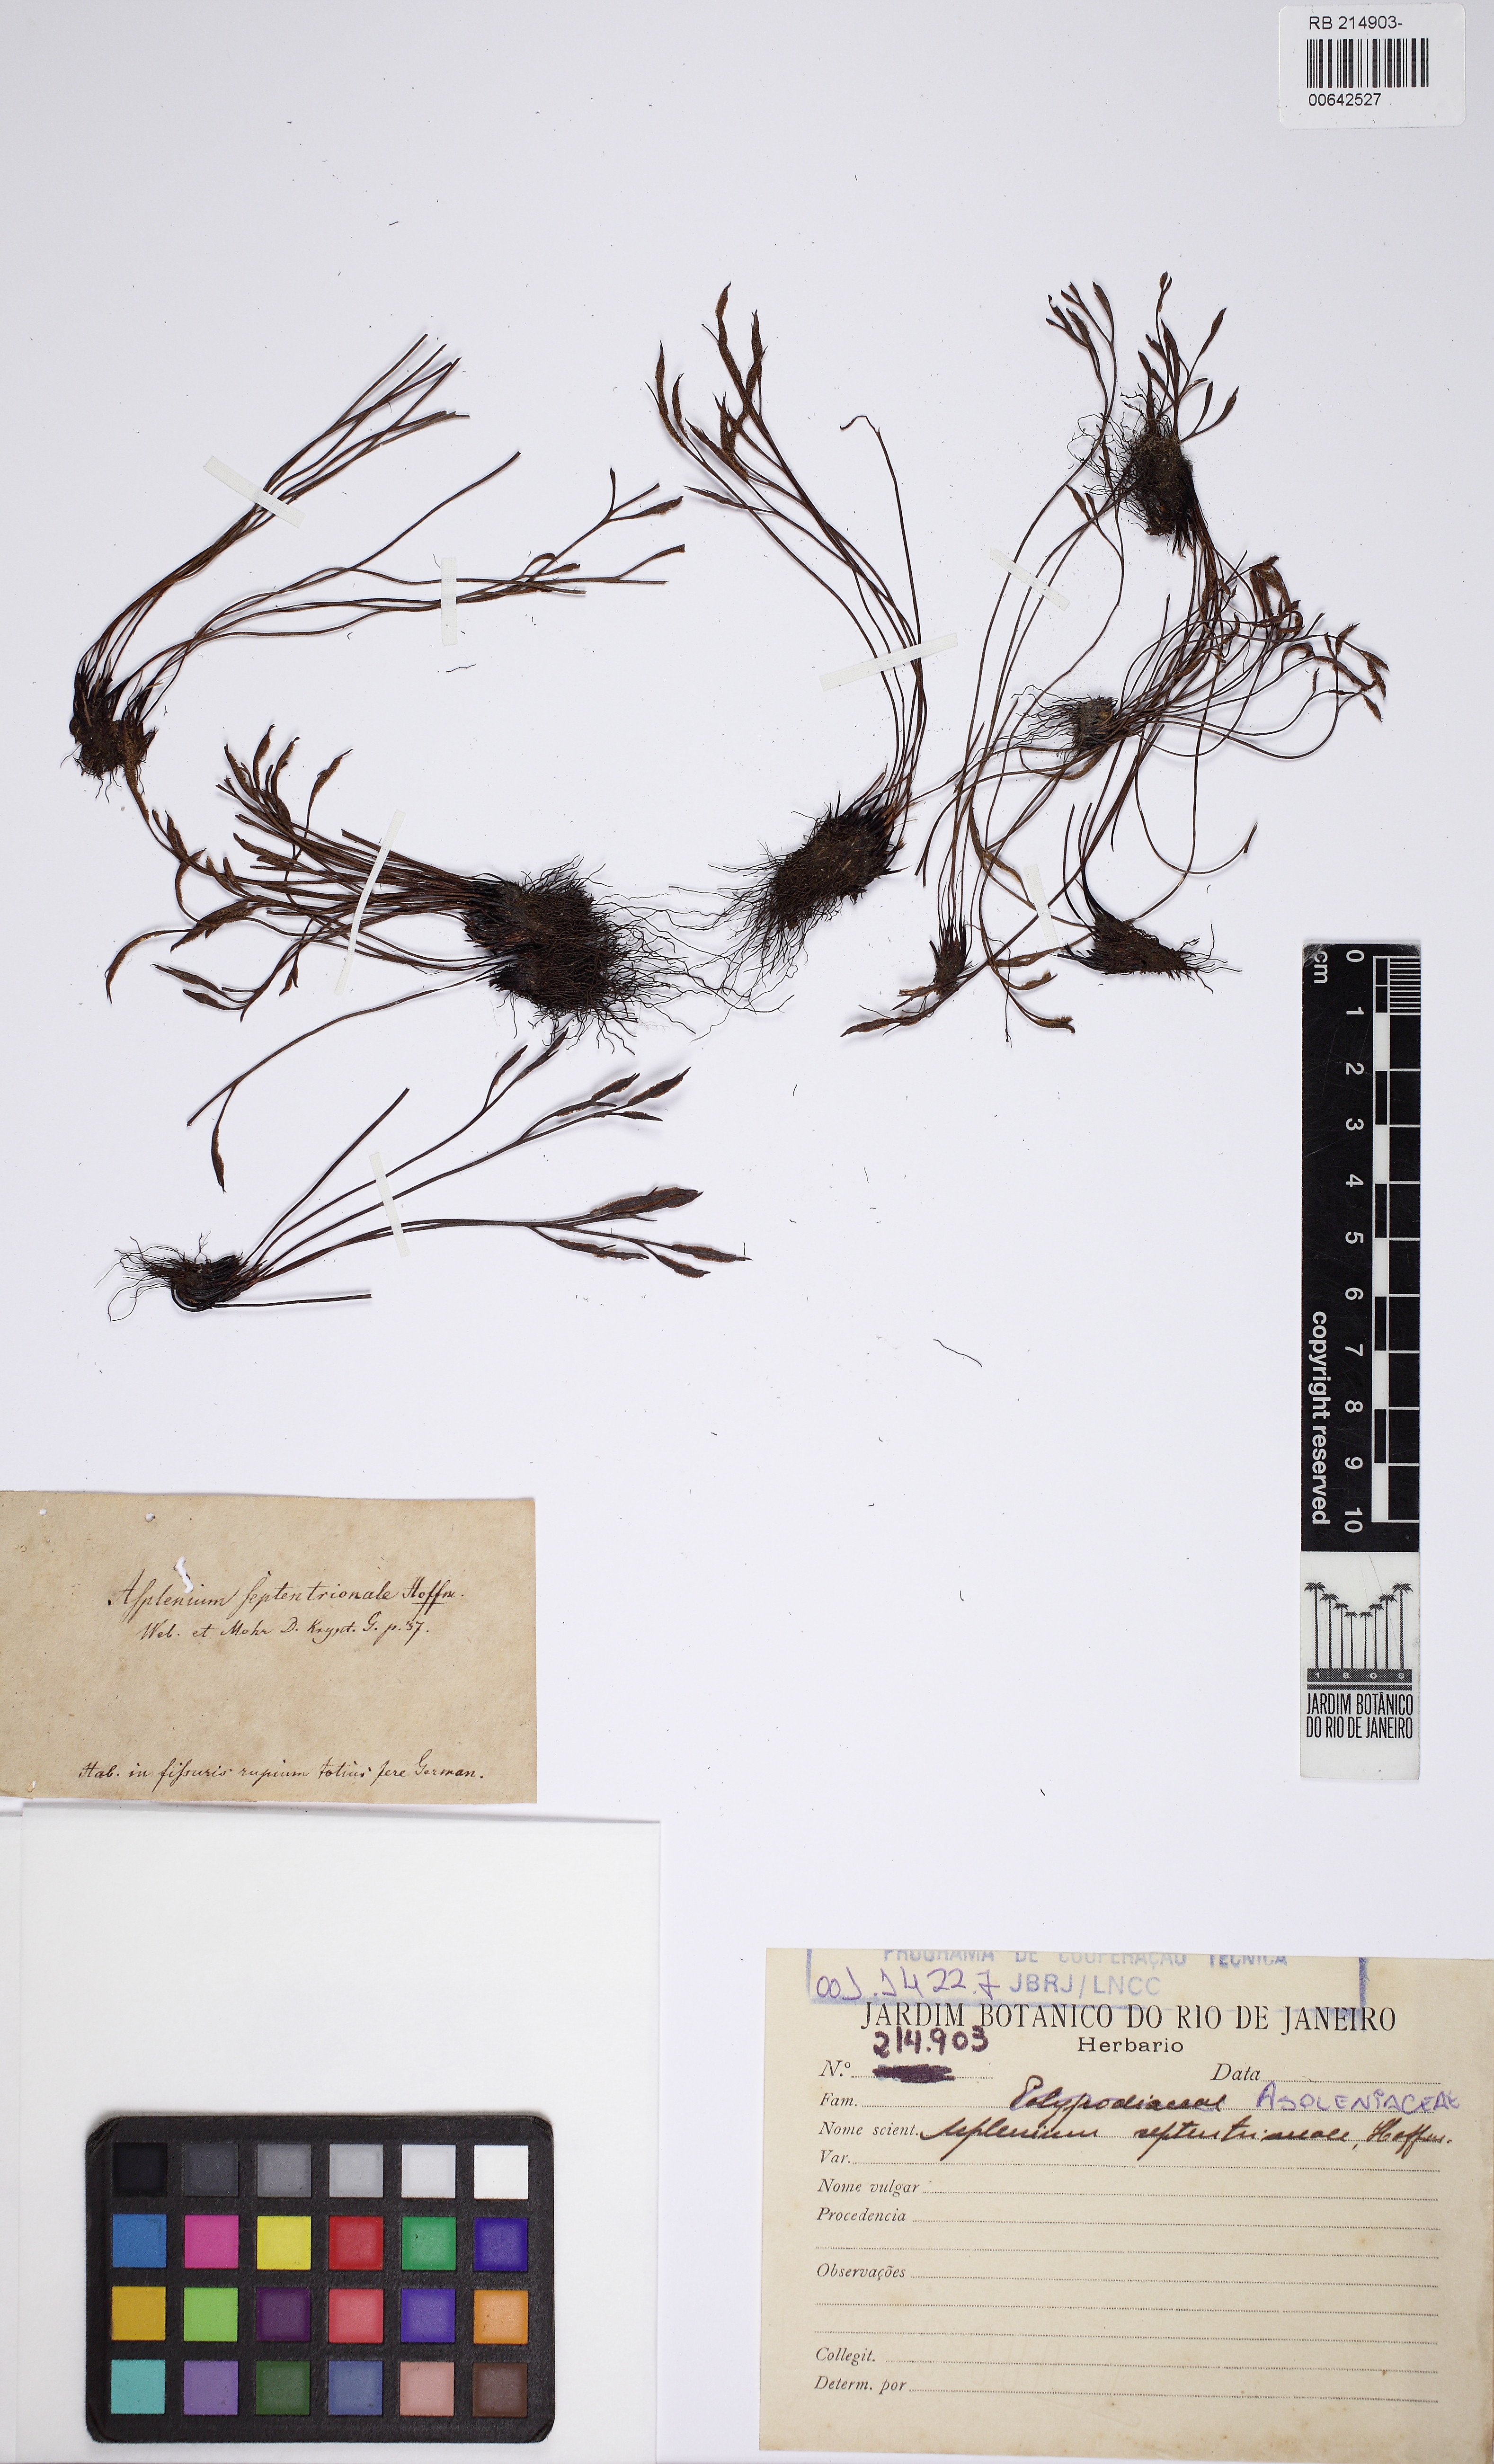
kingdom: Plantae
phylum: Tracheophyta
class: Polypodiopsida
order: Polypodiales
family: Aspleniaceae
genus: Asplenium
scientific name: Asplenium septentrionale
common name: Forked spleenwort
